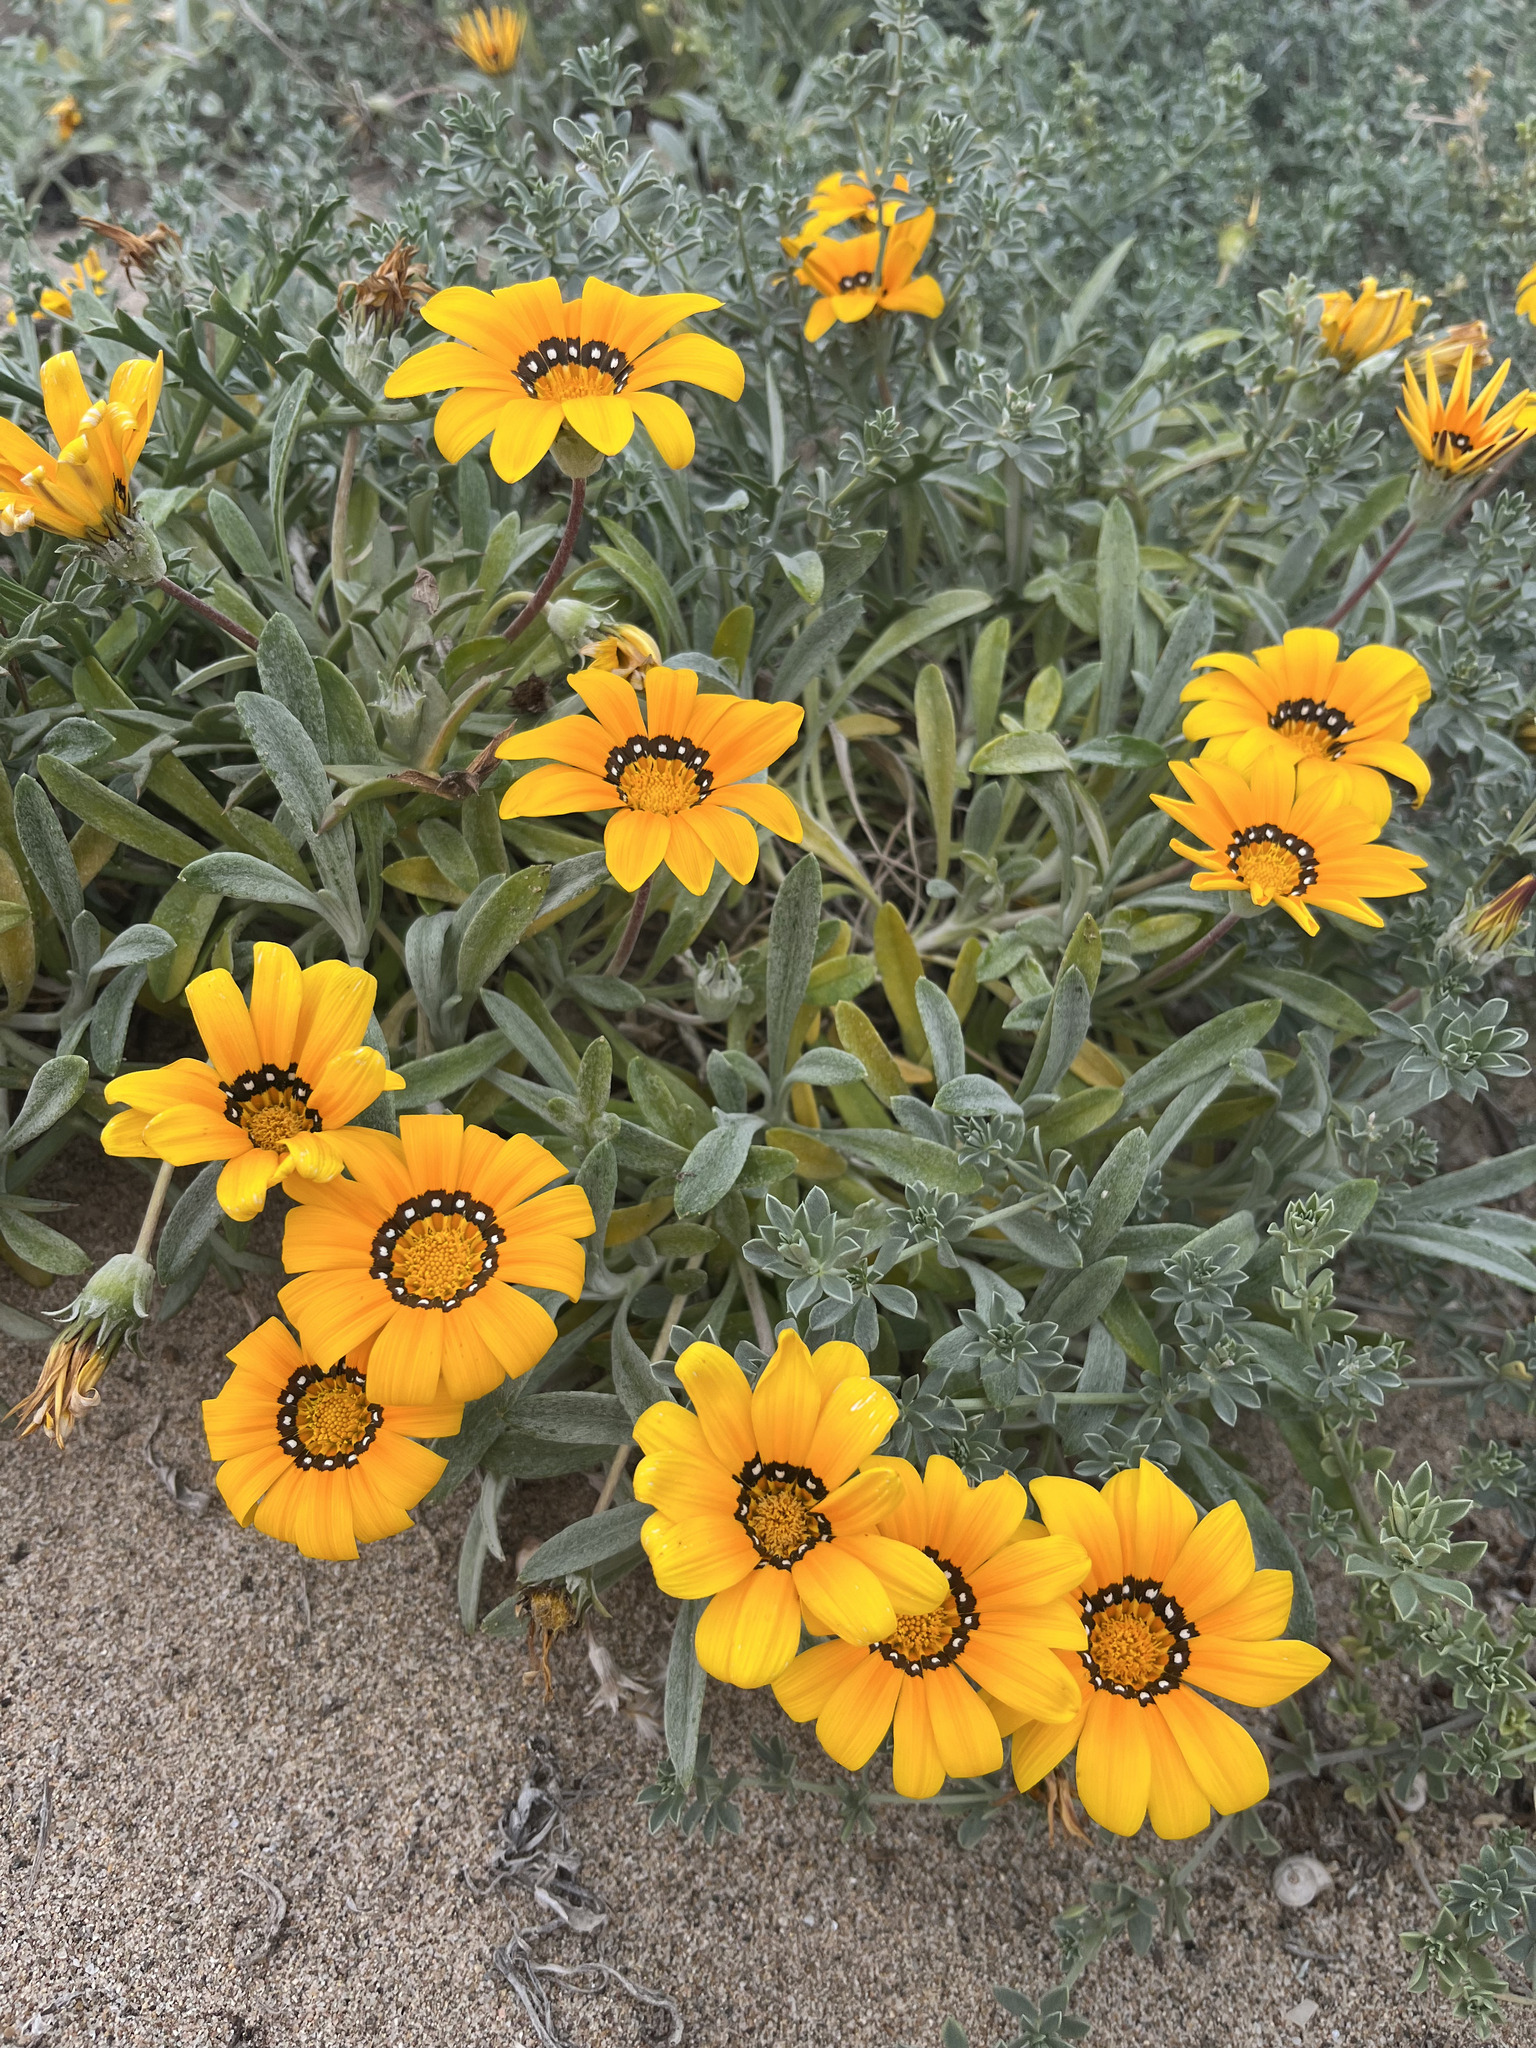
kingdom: Plantae
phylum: Tracheophyta
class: Magnoliopsida
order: Asterales
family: Asteraceae
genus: Gazania
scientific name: Gazania rigens
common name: Treasureflower
